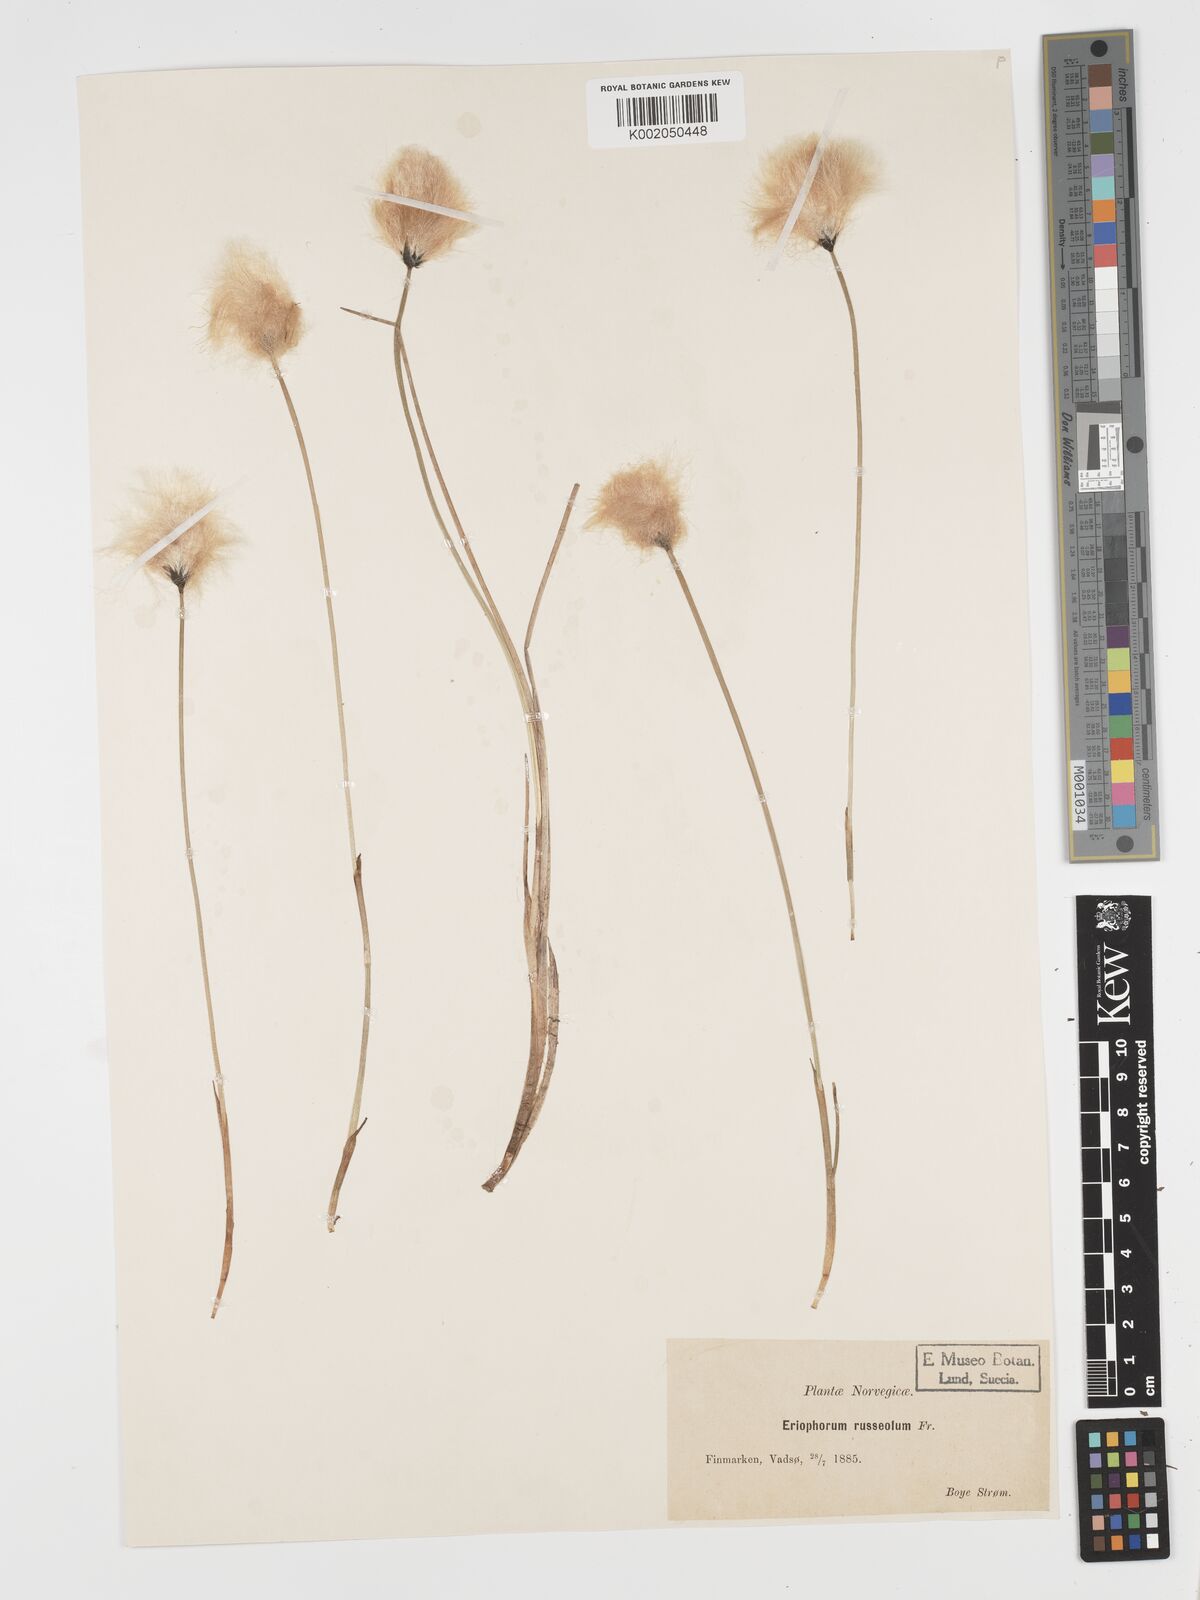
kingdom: Plantae
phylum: Tracheophyta
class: Liliopsida
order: Poales
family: Cyperaceae
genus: Eriophorum
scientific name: Eriophorum scheuchzeri
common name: Scheuchzer's cottongrass
